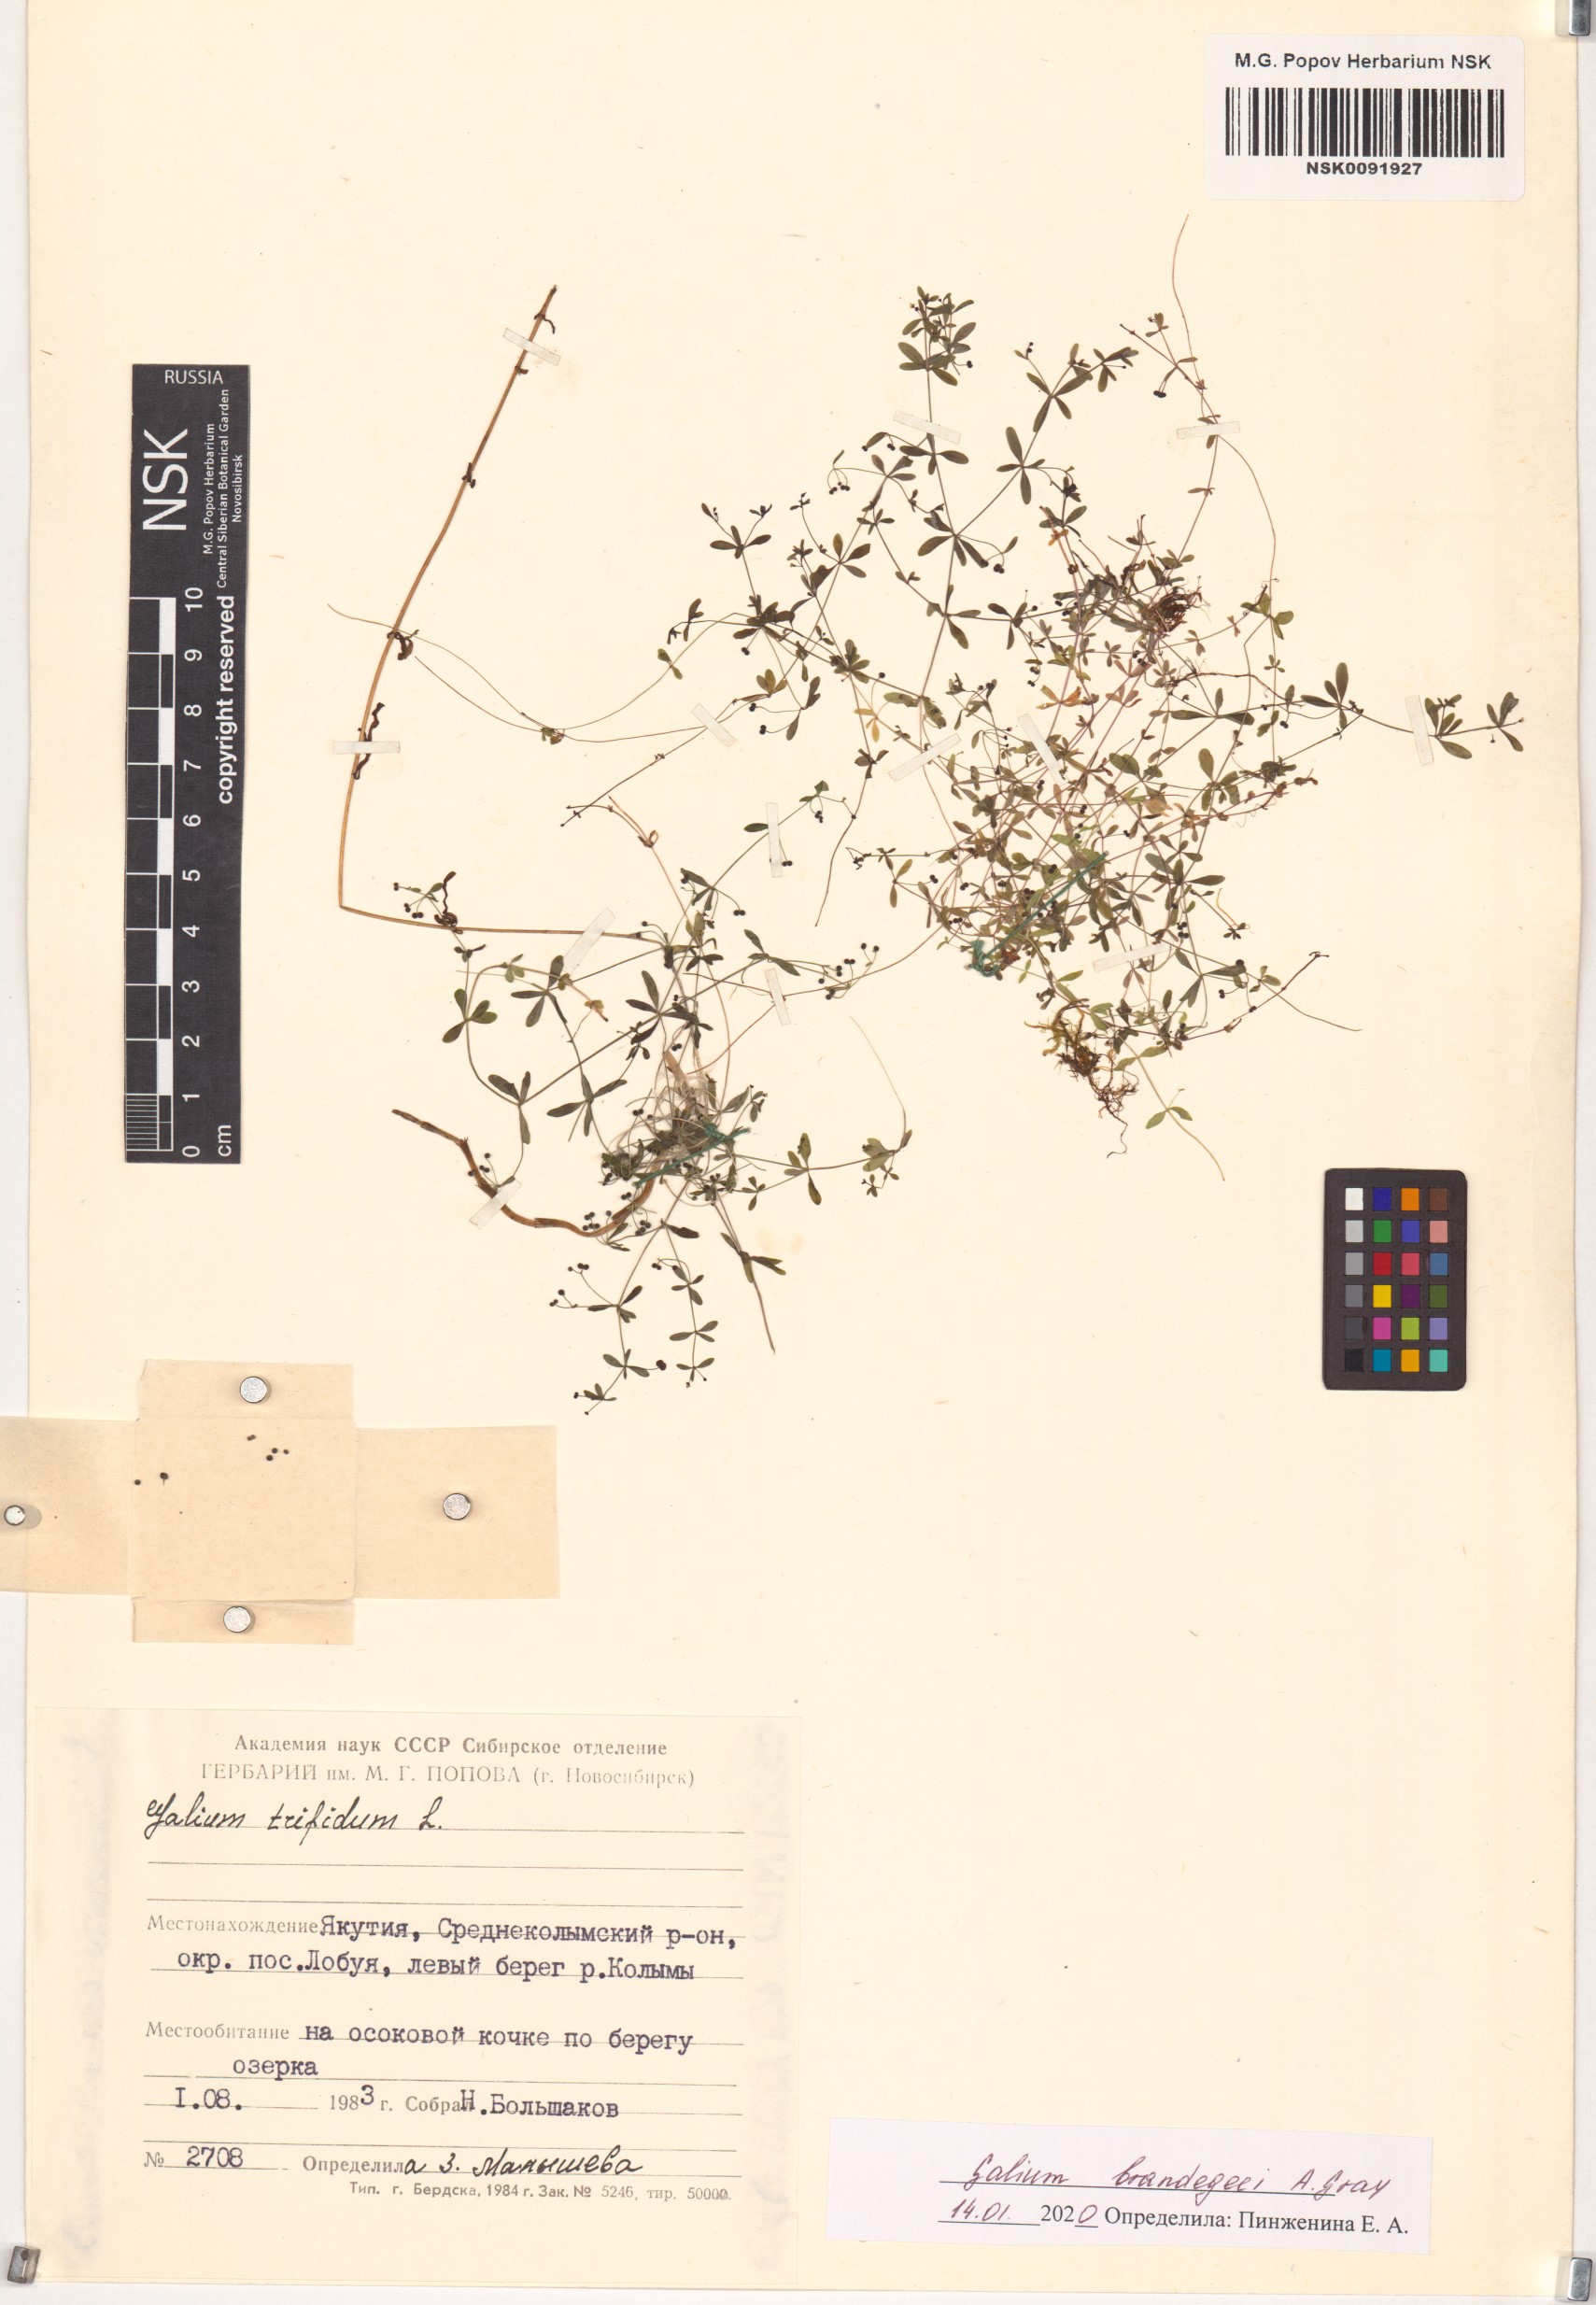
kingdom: Plantae
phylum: Tracheophyta
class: Magnoliopsida
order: Gentianales
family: Rubiaceae
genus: Galium
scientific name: Galium trifidum
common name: Small bedstraw
